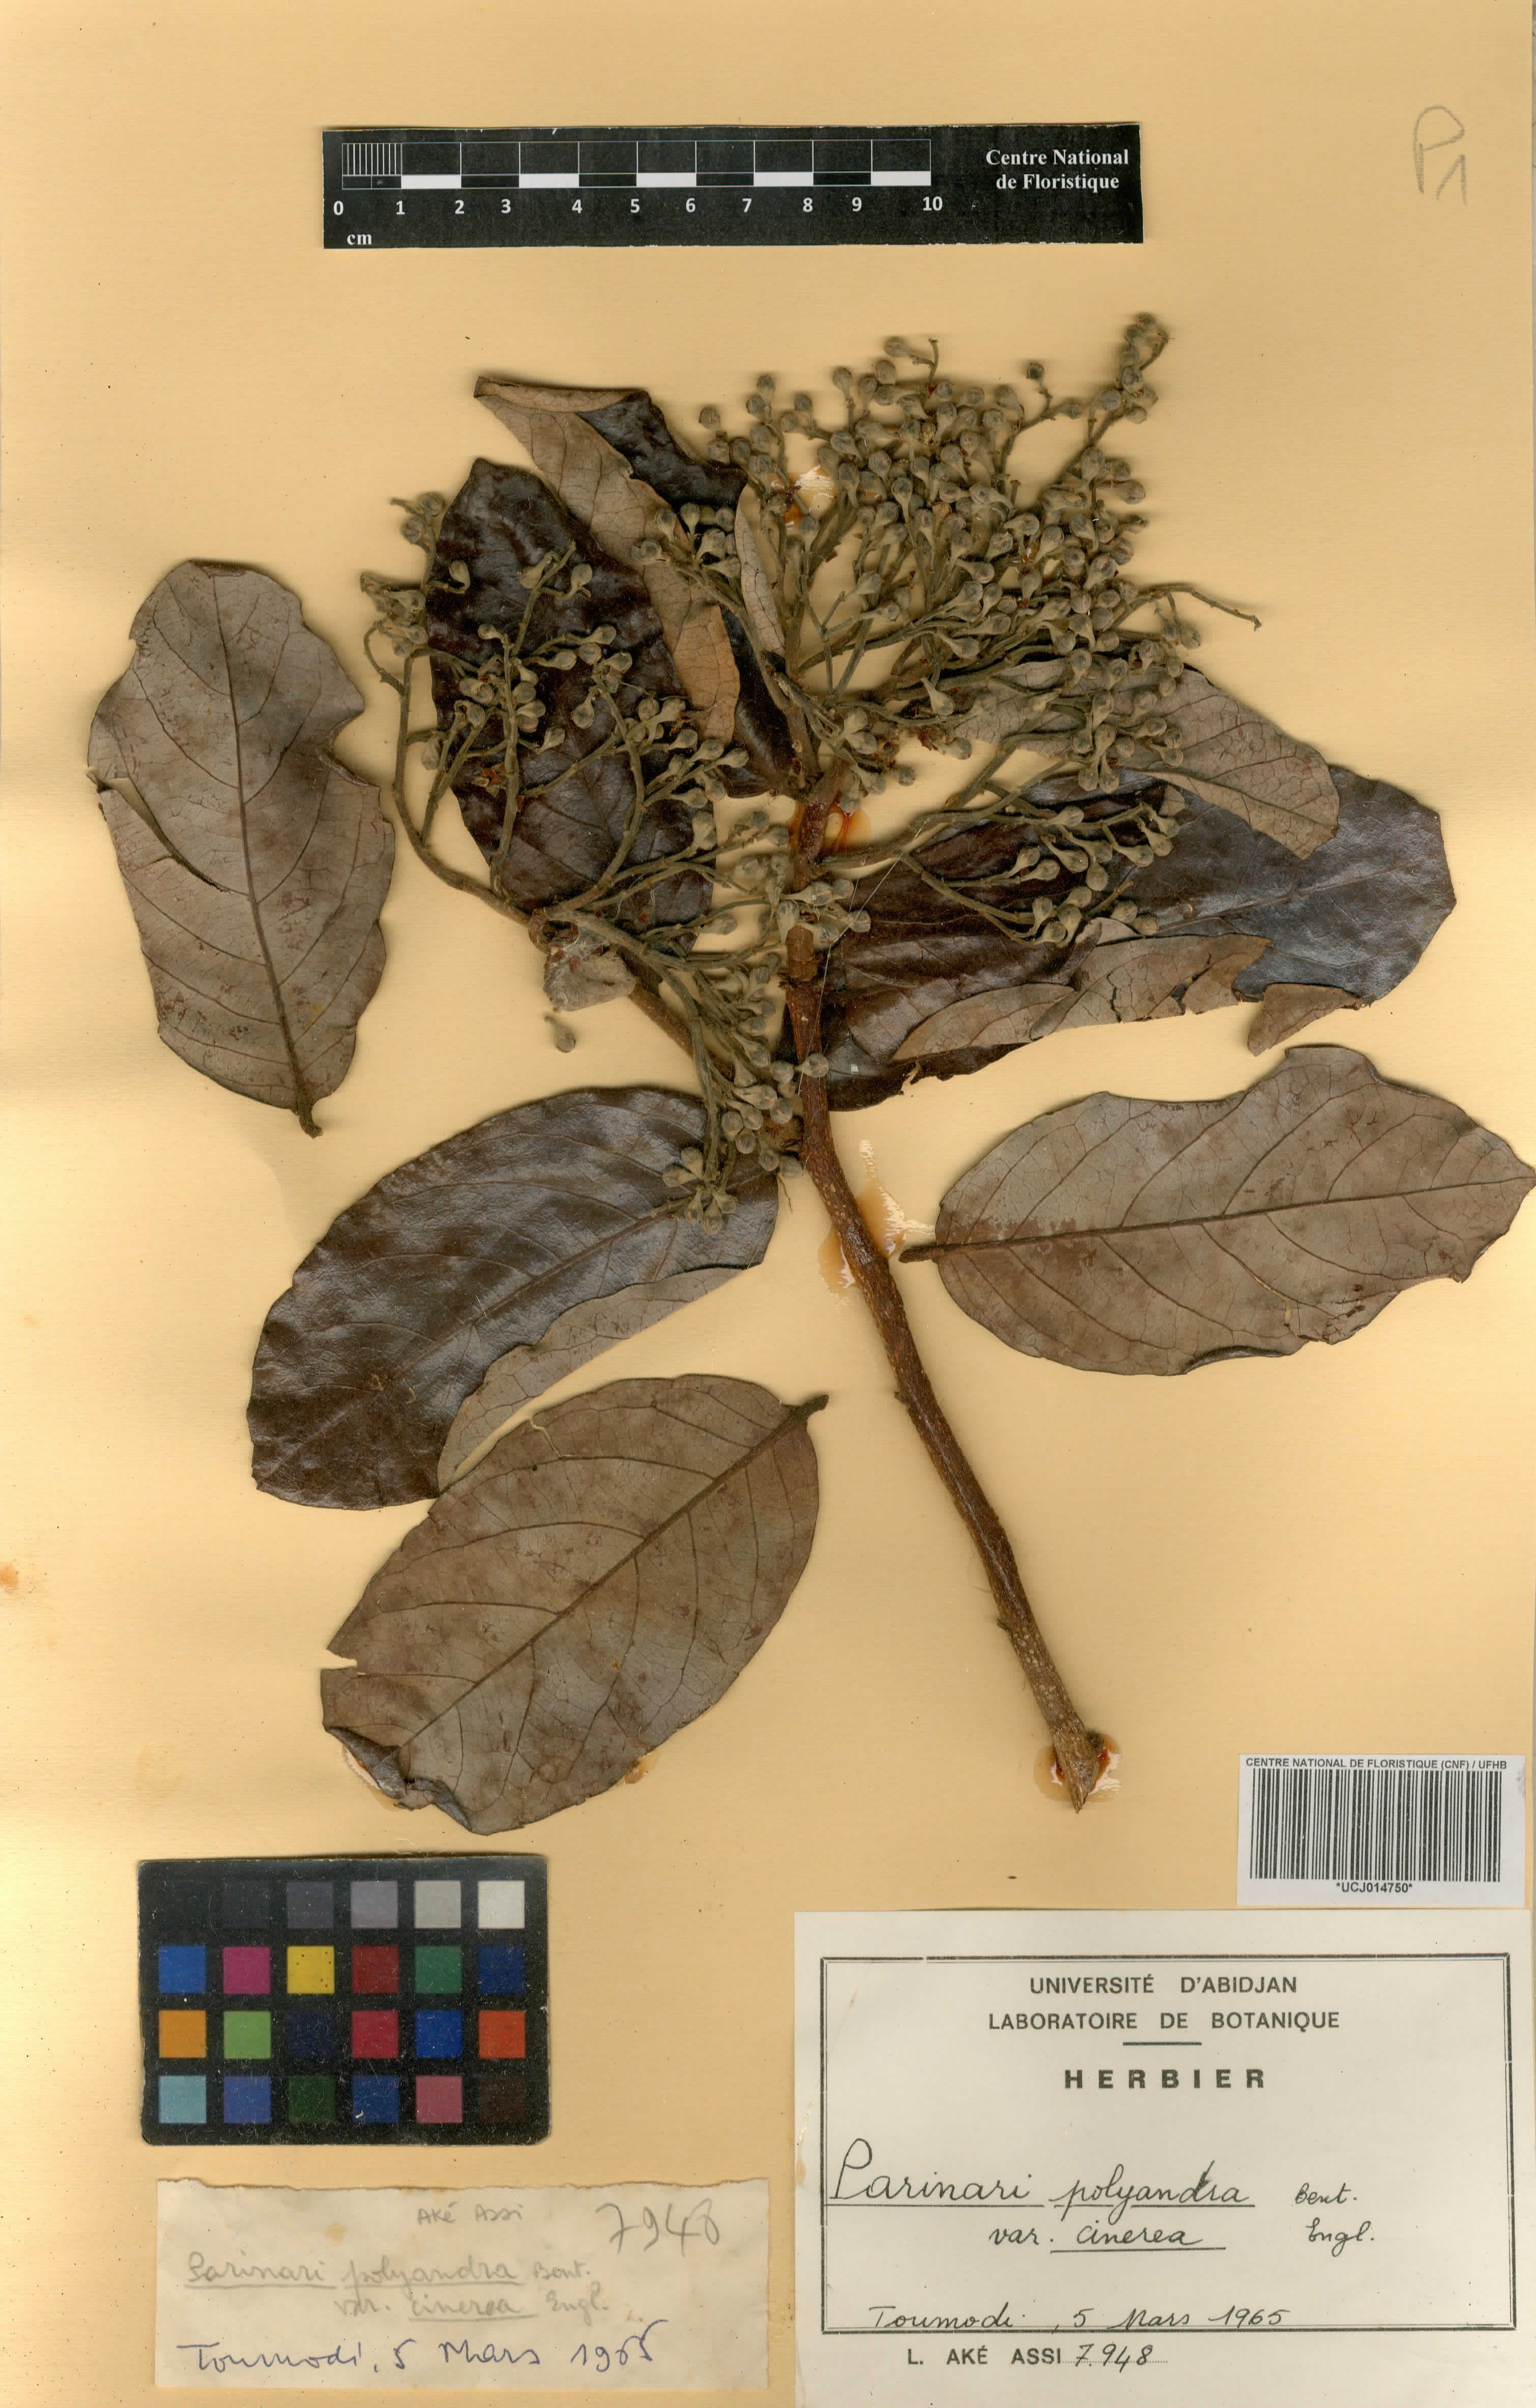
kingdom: Plantae
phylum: Tracheophyta
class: Magnoliopsida
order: Malpighiales
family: Chrysobalanaceae
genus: Maranthes
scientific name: Maranthes polyandra
